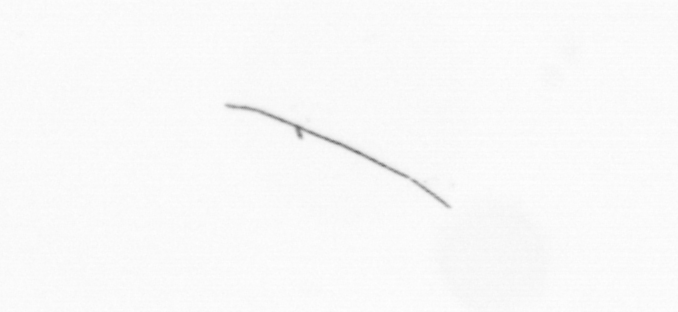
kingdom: Chromista
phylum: Ochrophyta
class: Bacillariophyceae
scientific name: Bacillariophyceae
